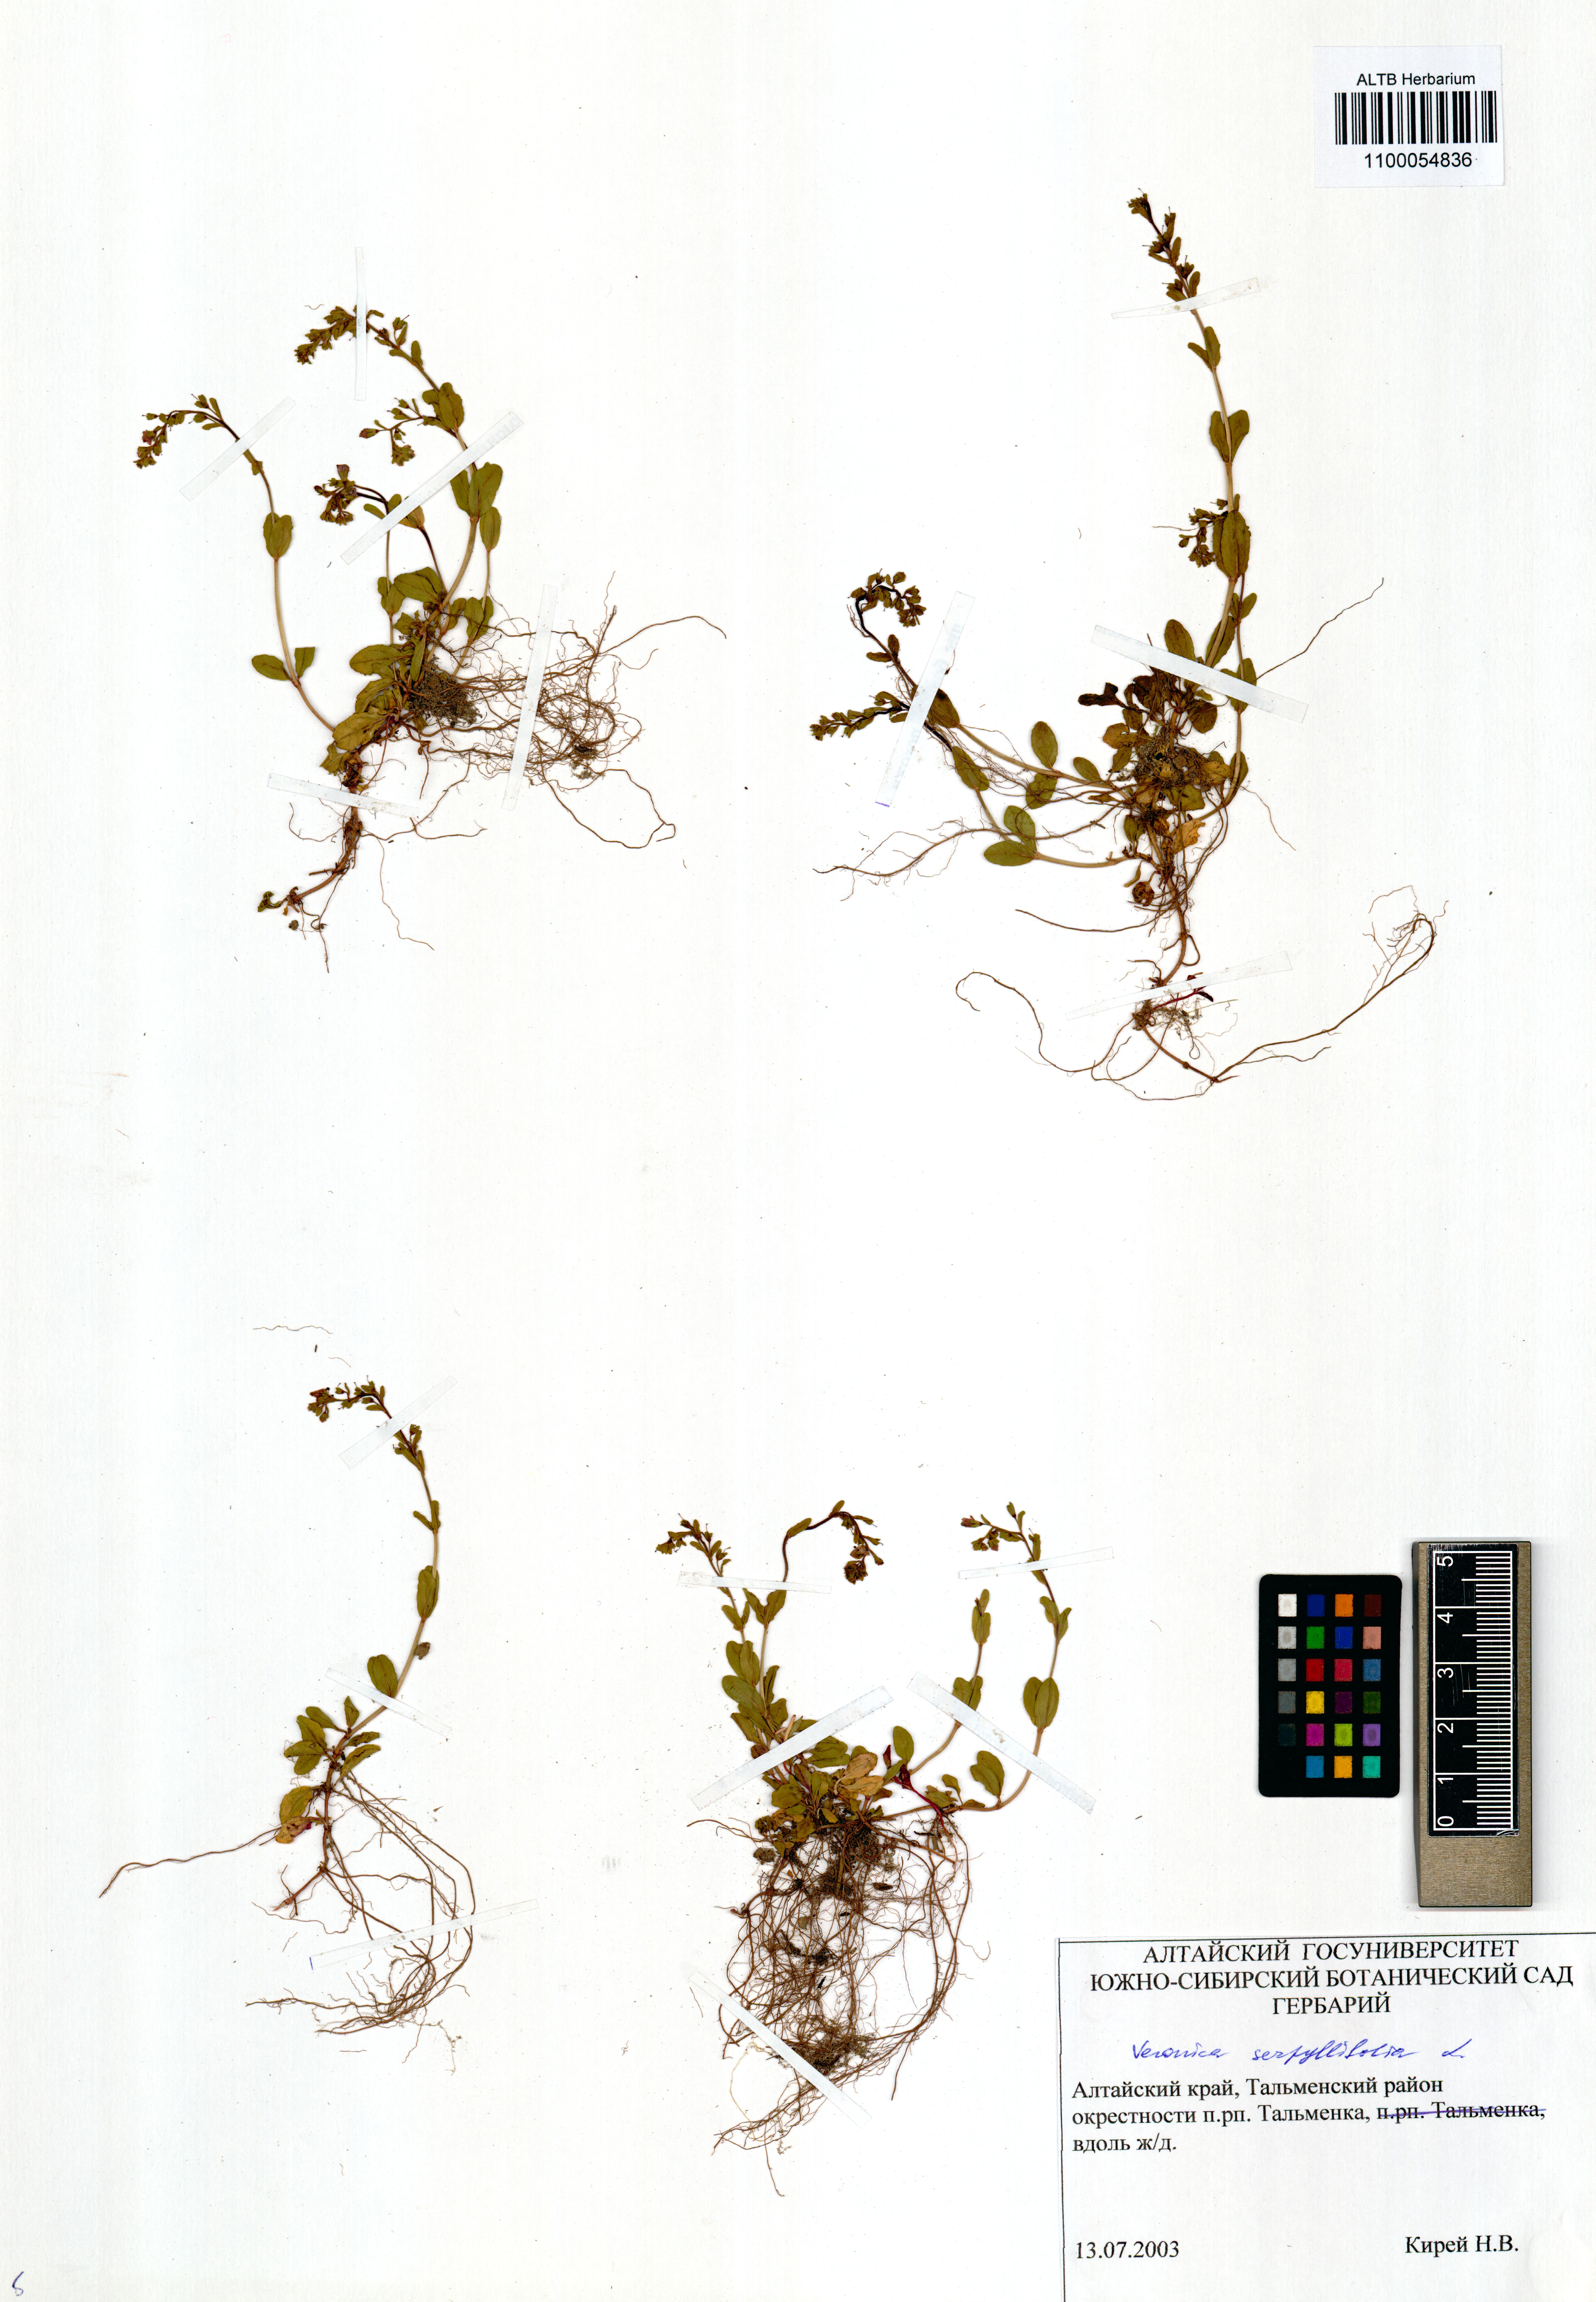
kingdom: Plantae
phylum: Tracheophyta
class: Magnoliopsida
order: Lamiales
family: Plantaginaceae
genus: Veronica
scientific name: Veronica serpyllifolia
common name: Thyme-leaved speedwell
